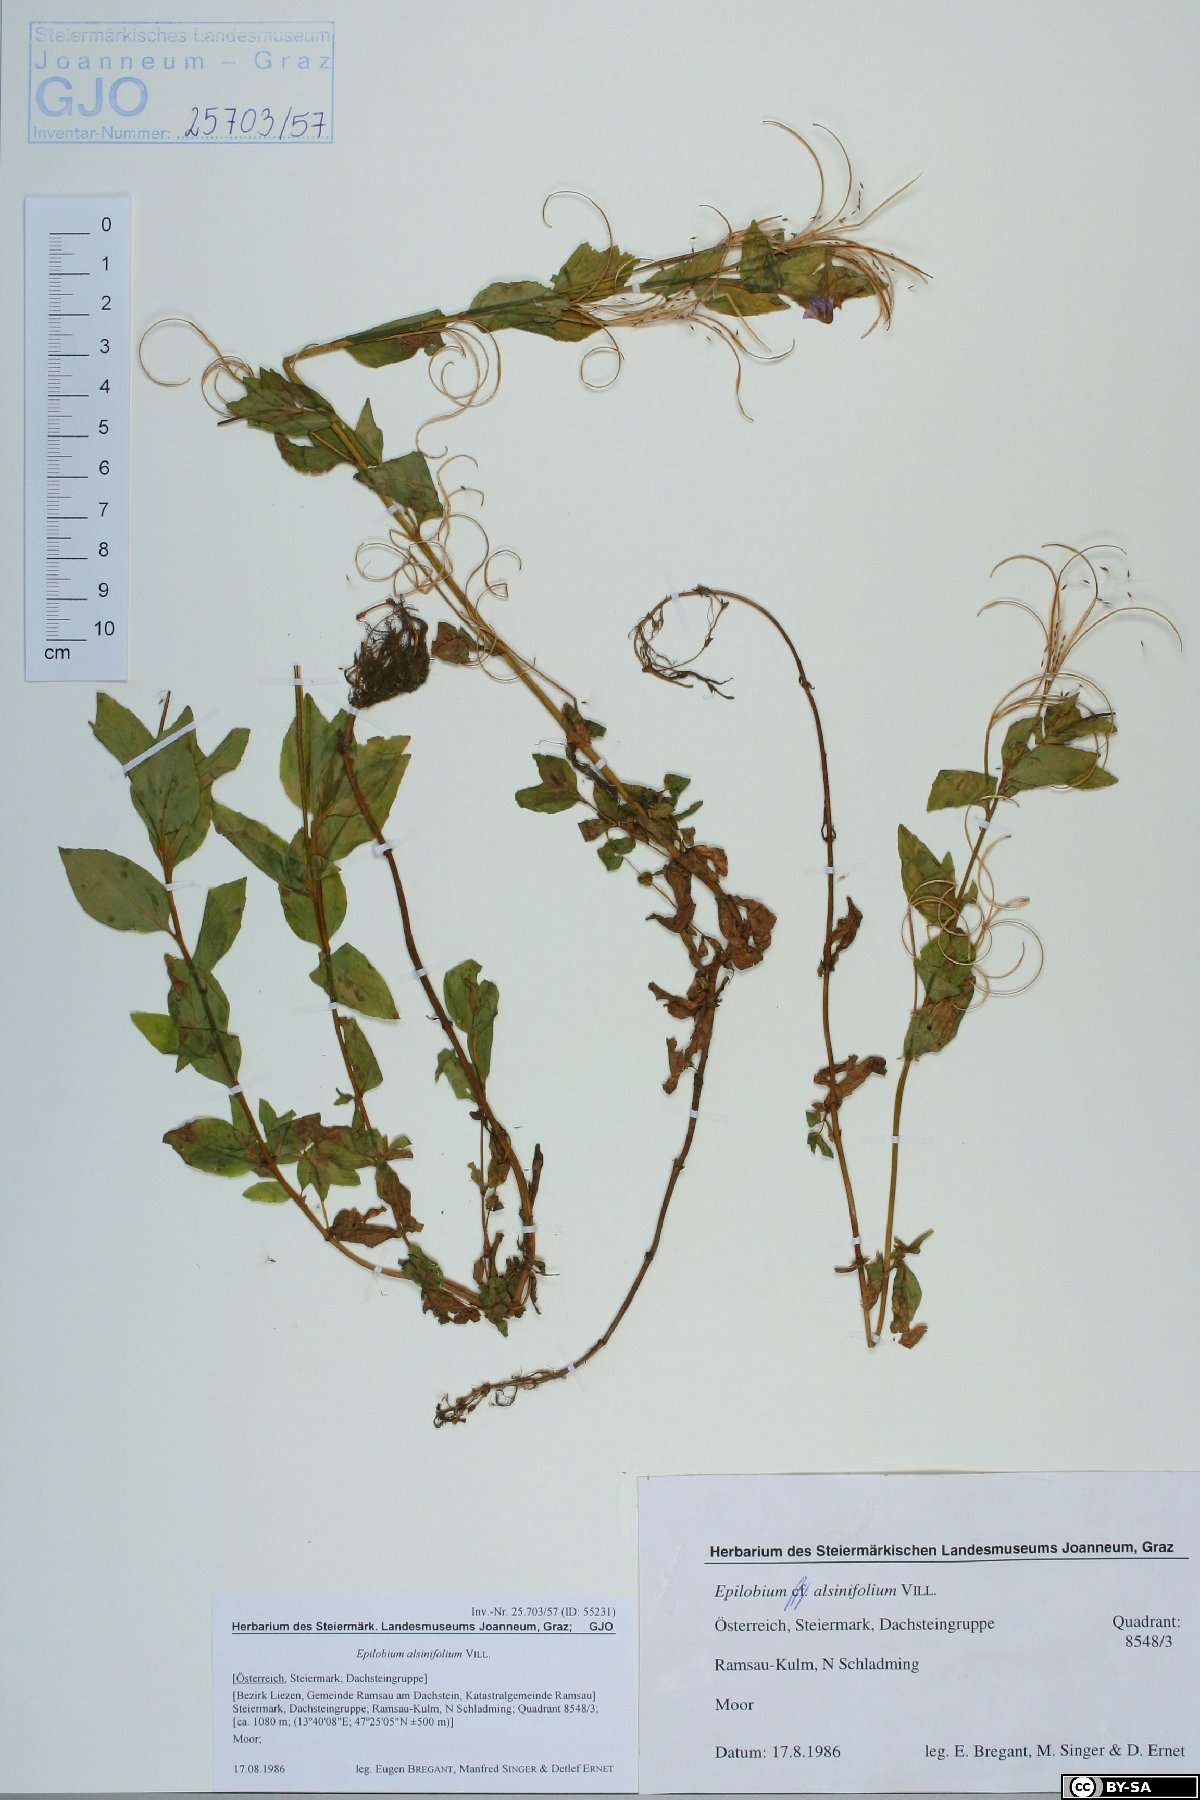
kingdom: Plantae
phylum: Tracheophyta
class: Magnoliopsida
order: Myrtales
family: Onagraceae
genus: Epilobium
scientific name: Epilobium alsinifolium
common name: Chickweed willowherb
